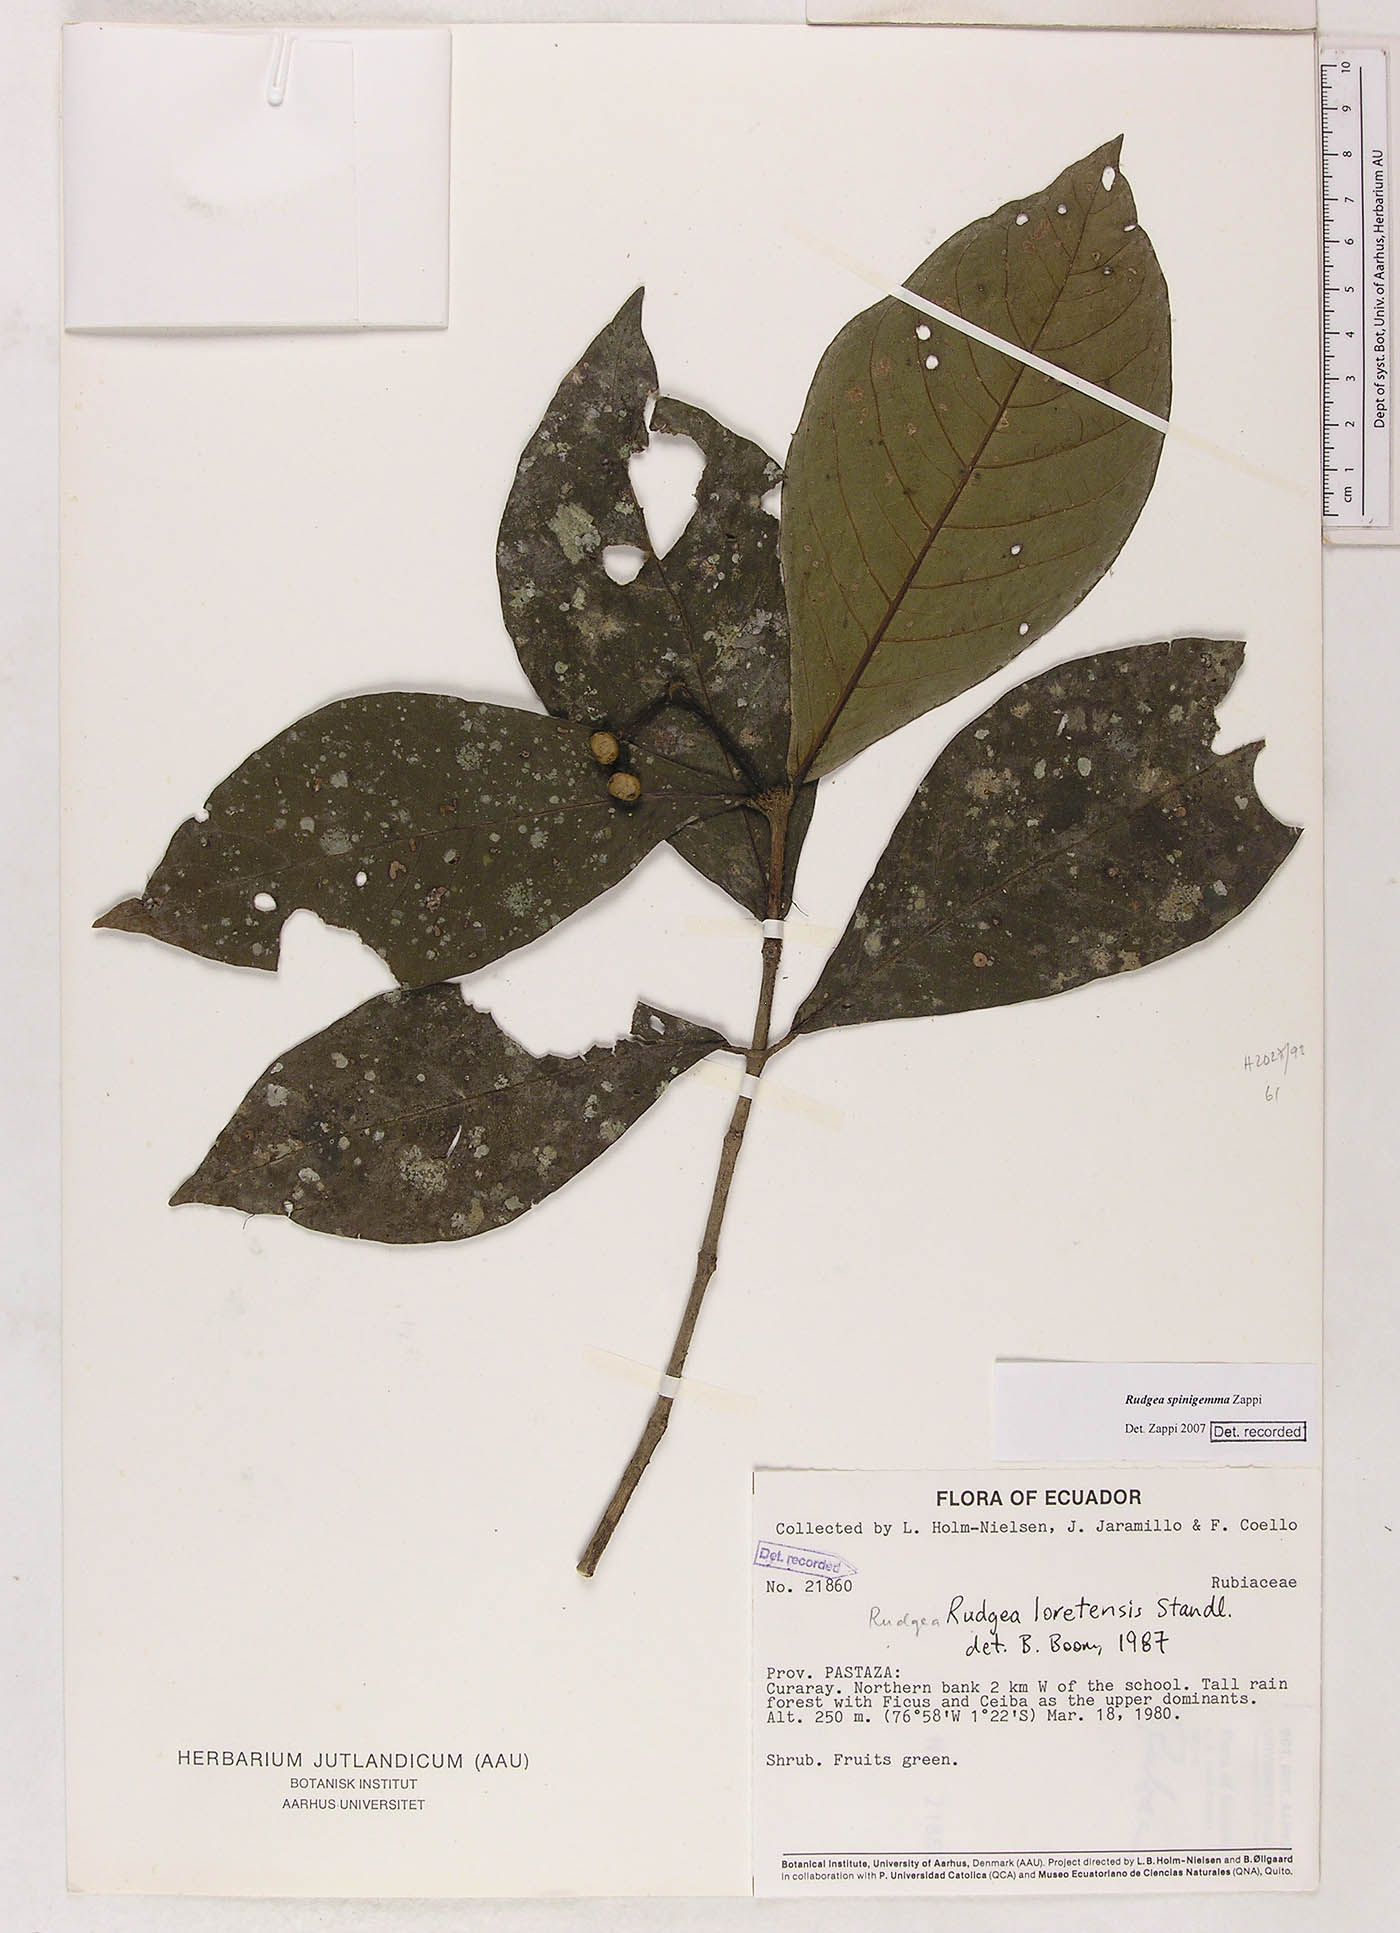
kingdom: Plantae
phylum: Tracheophyta
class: Magnoliopsida
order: Gentianales
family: Rubiaceae
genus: Rudgea
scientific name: Rudgea spinigemma
